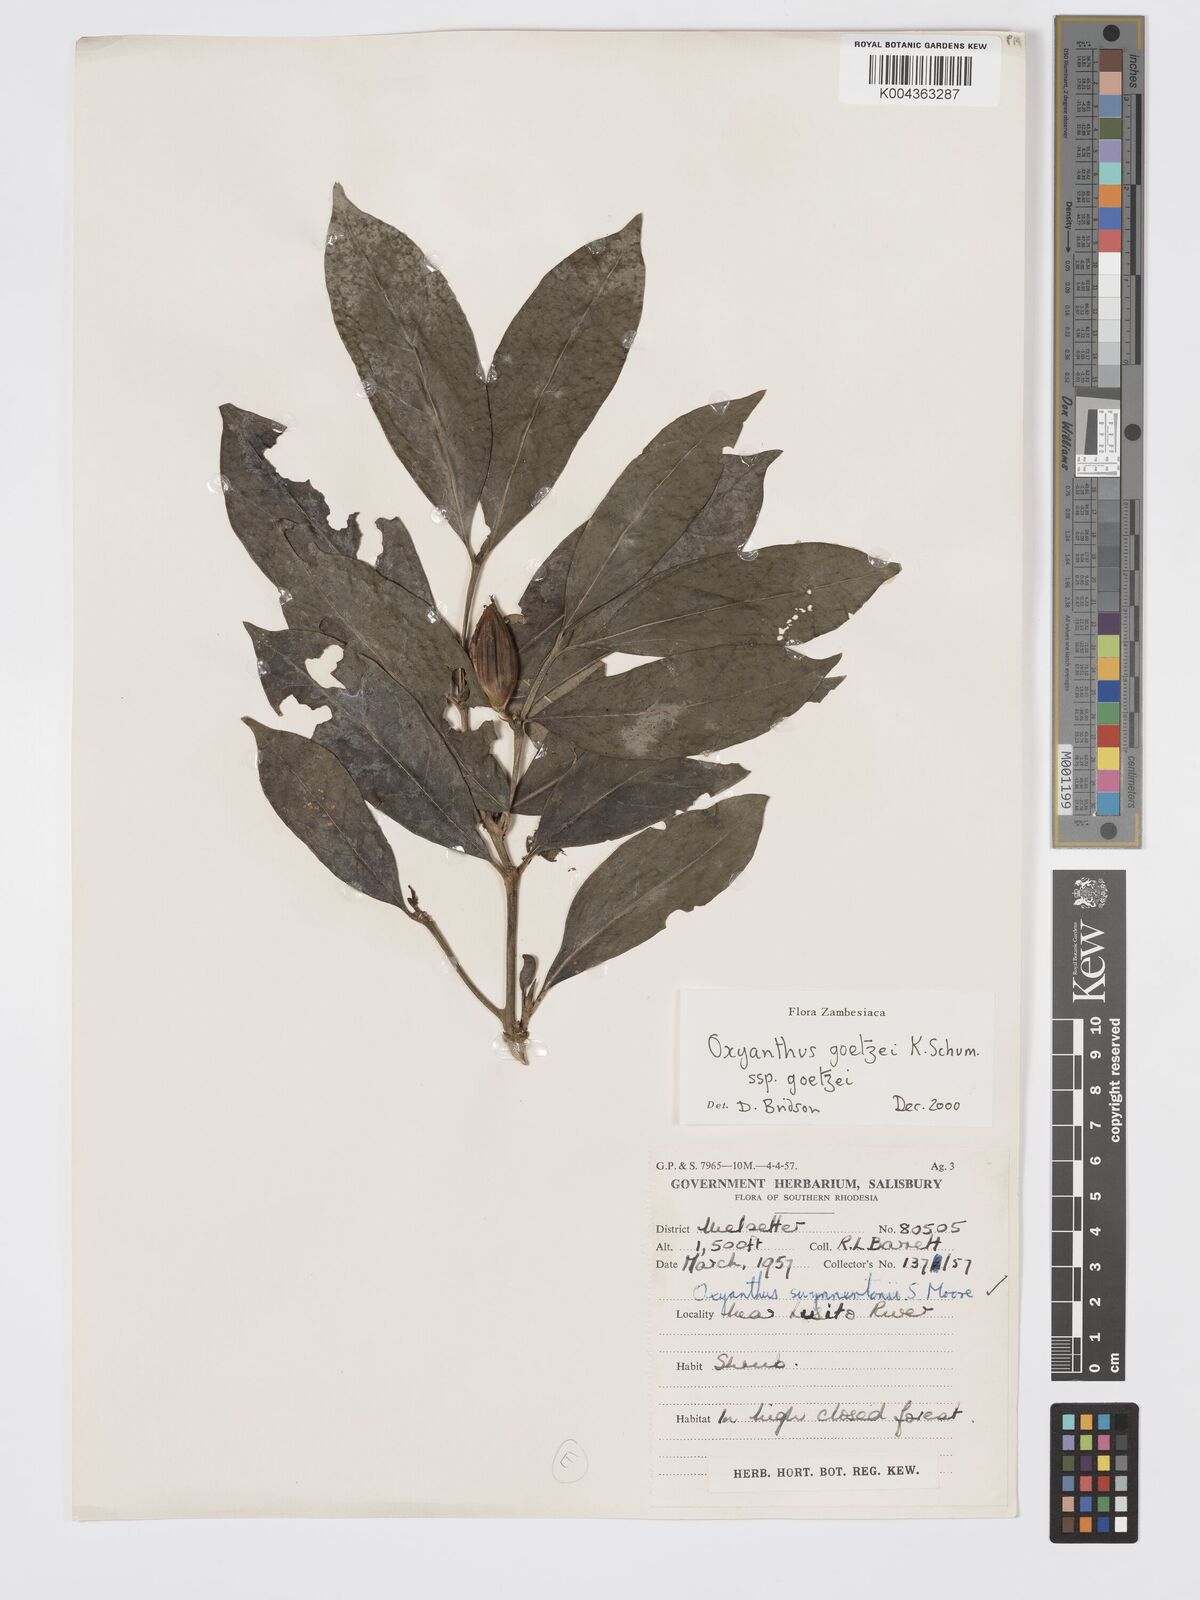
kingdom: Plantae
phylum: Tracheophyta
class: Magnoliopsida
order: Gentianales
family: Rubiaceae
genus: Oxyanthus
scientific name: Oxyanthus goetzei
